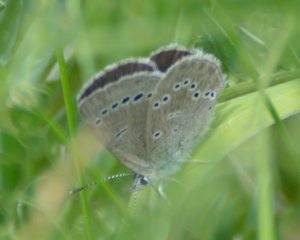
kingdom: Animalia
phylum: Arthropoda
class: Insecta
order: Lepidoptera
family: Lycaenidae
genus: Glaucopsyche
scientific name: Glaucopsyche lygdamus
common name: Silvery Blue
